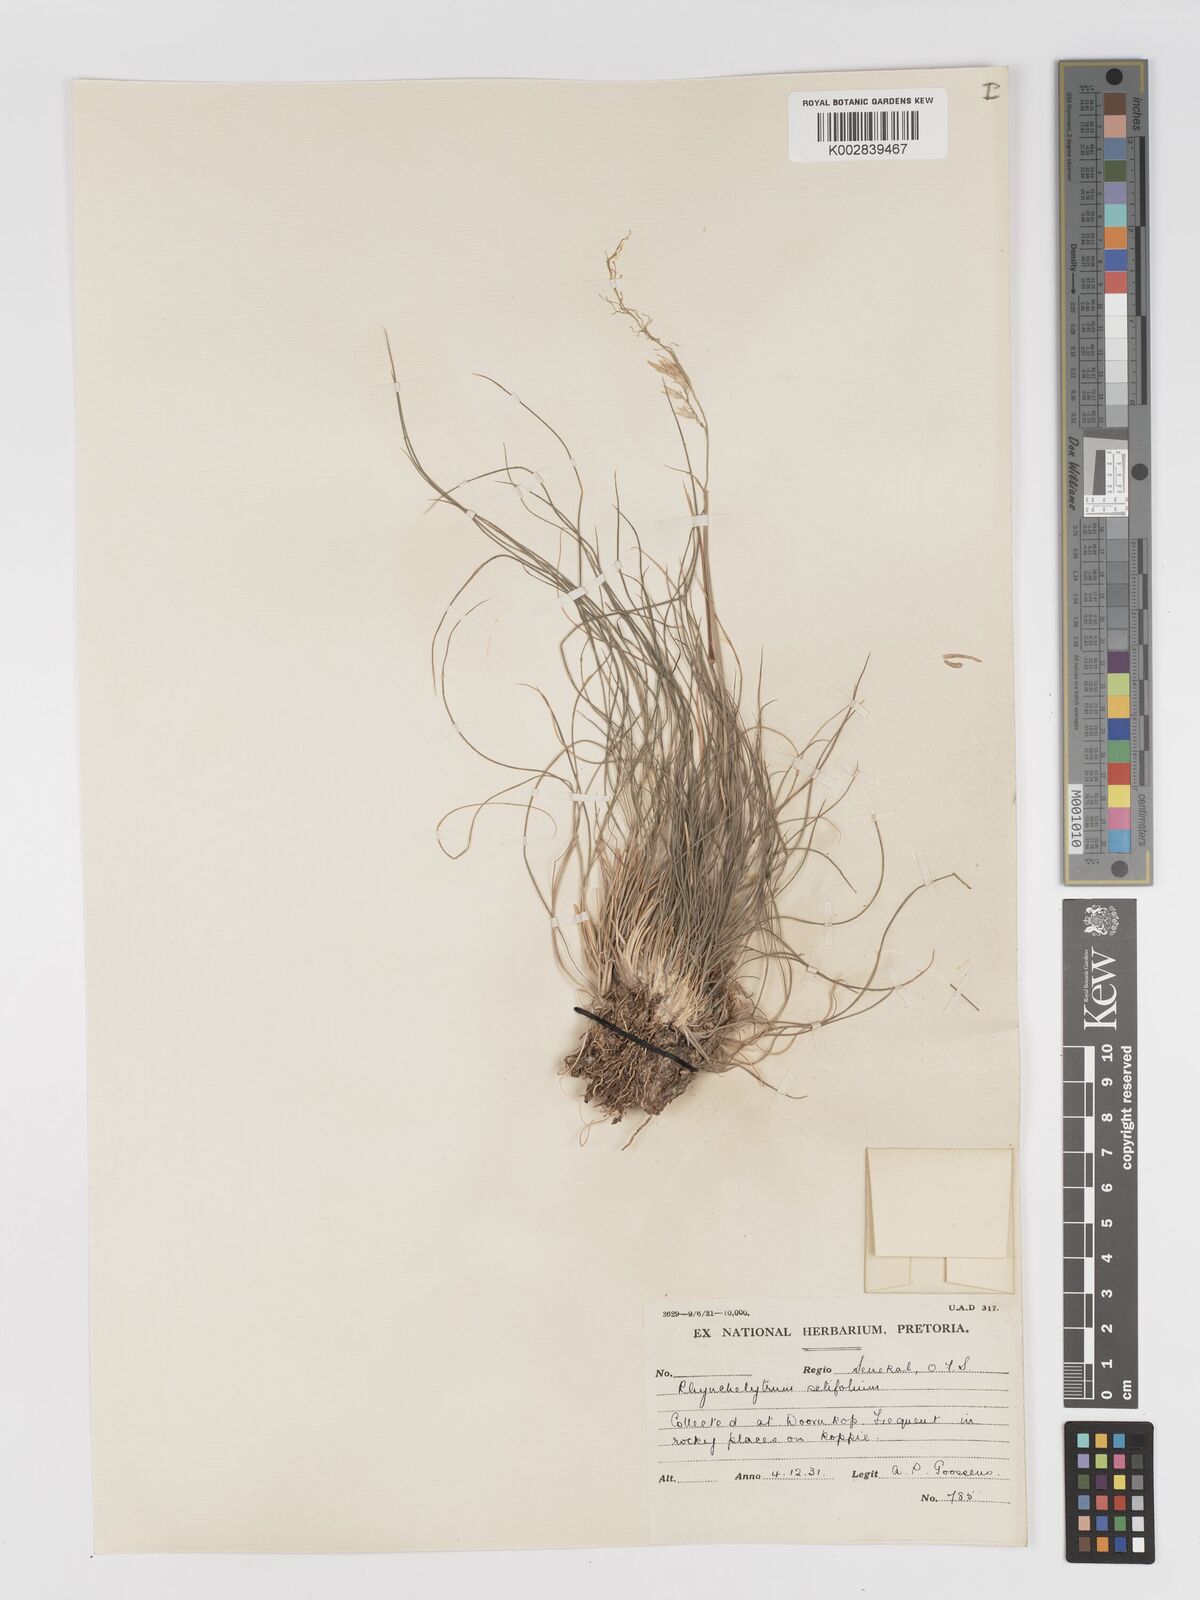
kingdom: Plantae
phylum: Tracheophyta
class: Liliopsida
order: Poales
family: Poaceae
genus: Melinis
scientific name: Melinis nerviglumis
